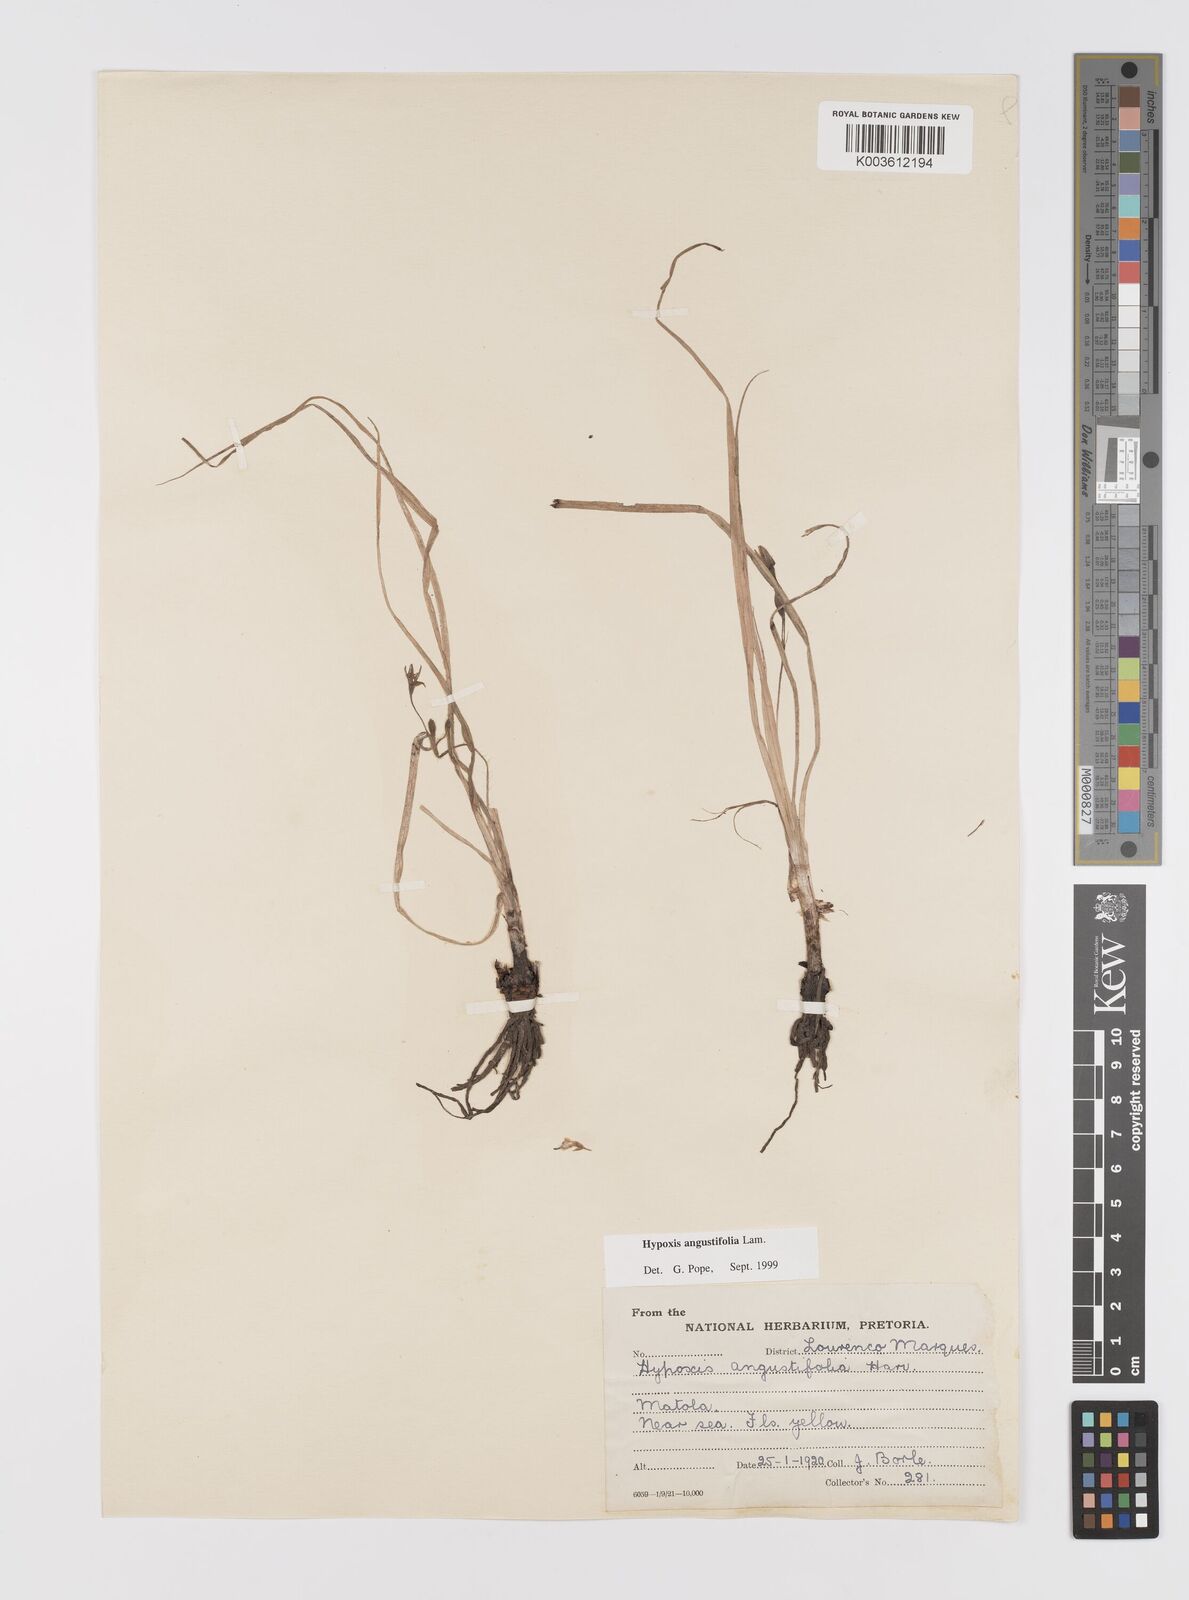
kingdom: Plantae
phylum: Tracheophyta
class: Liliopsida
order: Asparagales
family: Hypoxidaceae
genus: Hypoxis
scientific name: Hypoxis angustifolia
